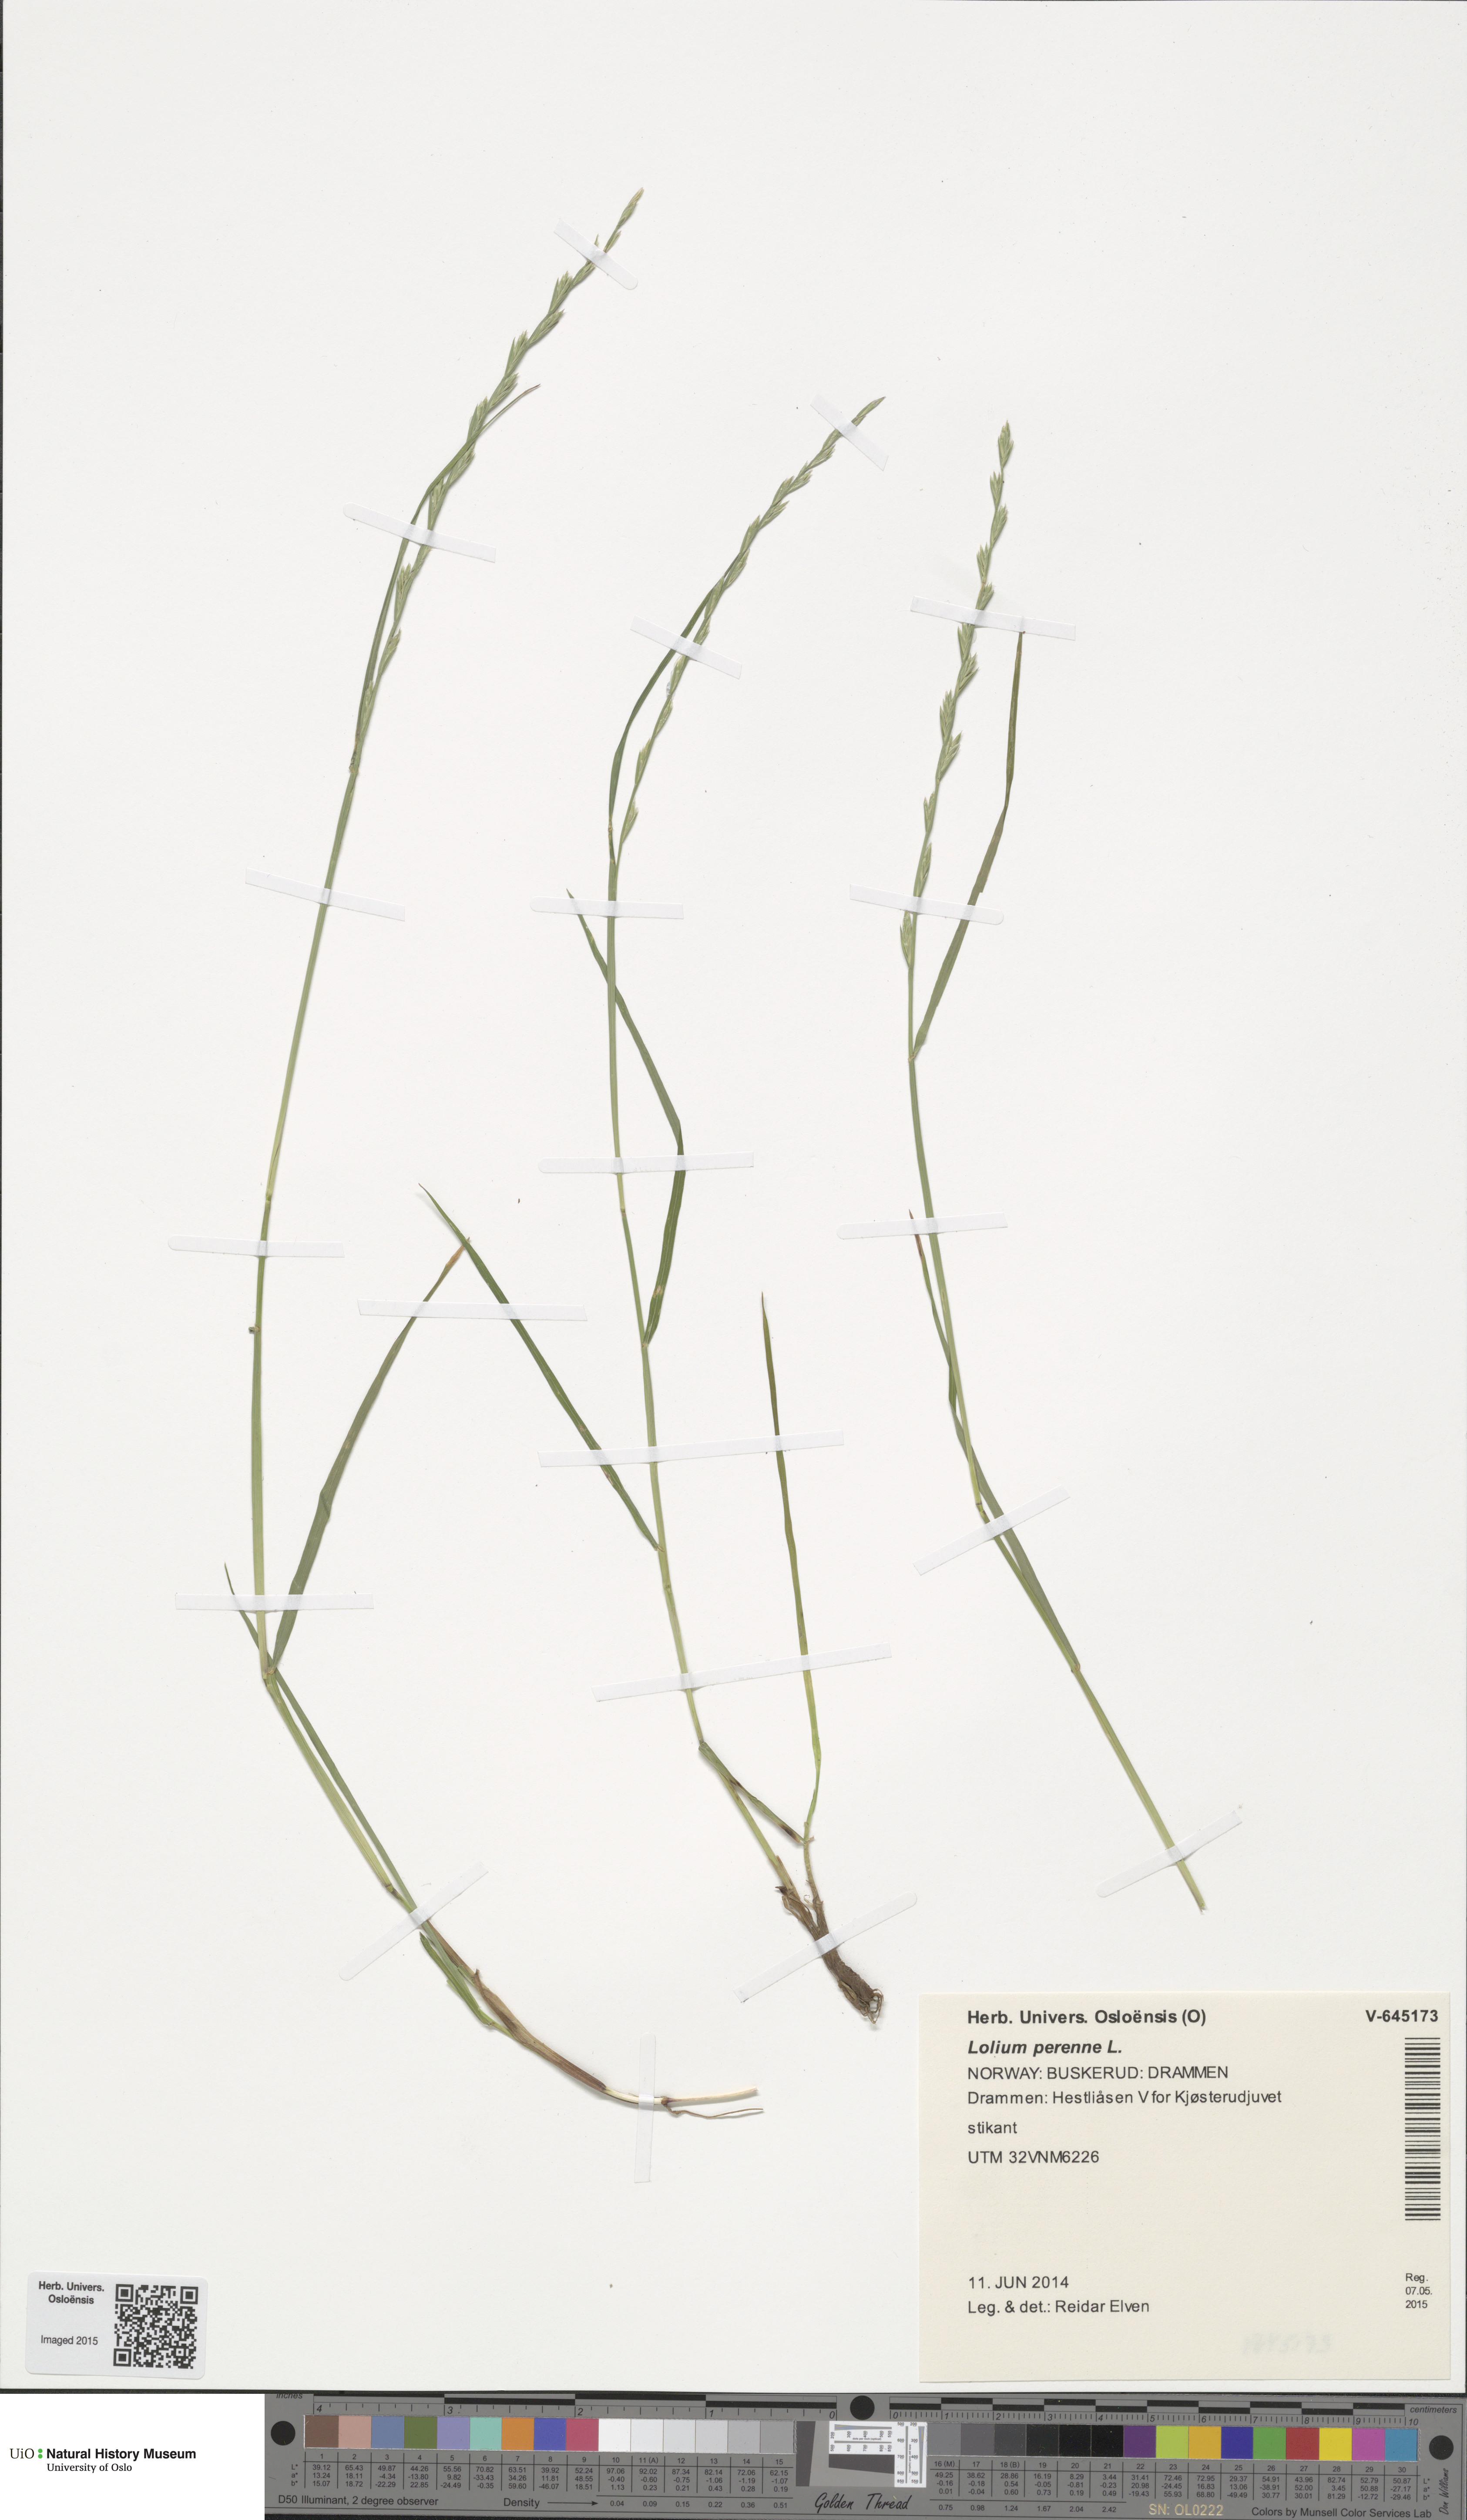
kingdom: Plantae
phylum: Tracheophyta
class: Liliopsida
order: Poales
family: Poaceae
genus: Lolium
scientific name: Lolium perenne
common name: Perennial ryegrass
